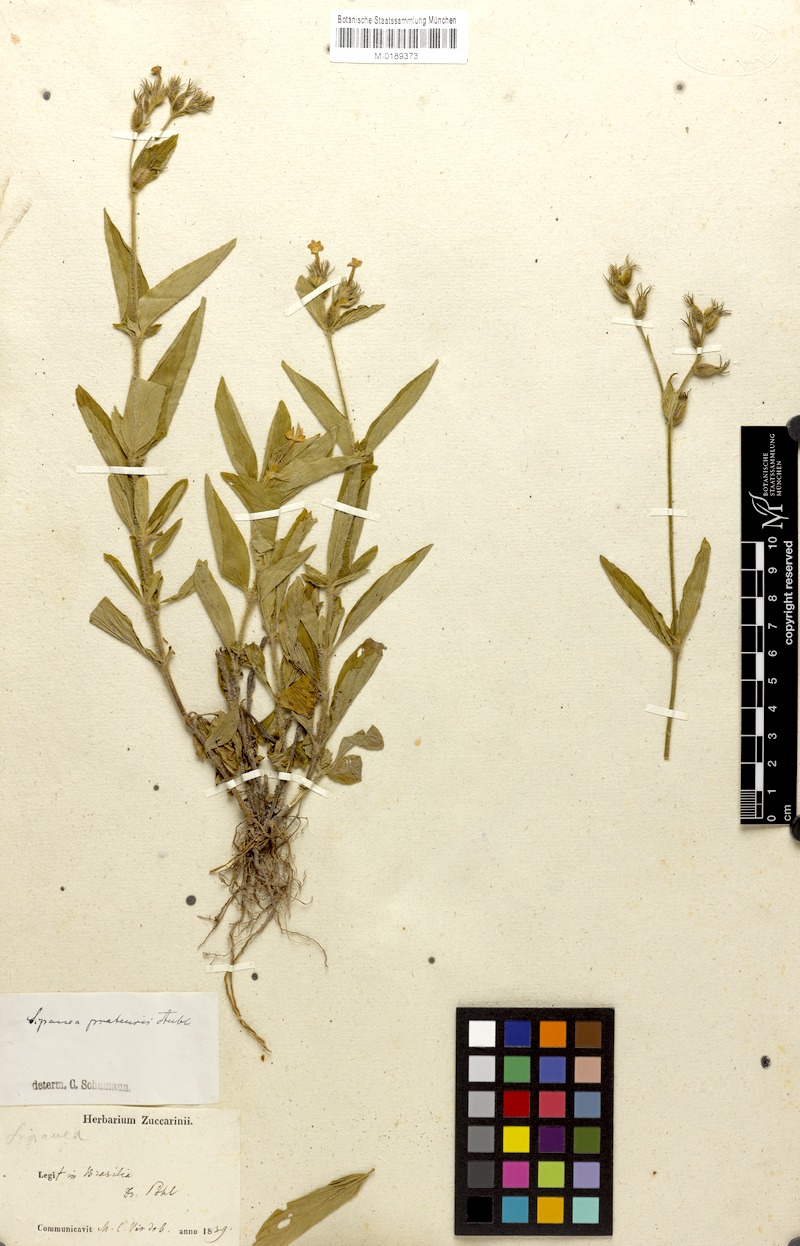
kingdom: Plantae
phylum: Tracheophyta
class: Magnoliopsida
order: Gentianales
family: Rubiaceae
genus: Sipanea
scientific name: Sipanea pratensis
